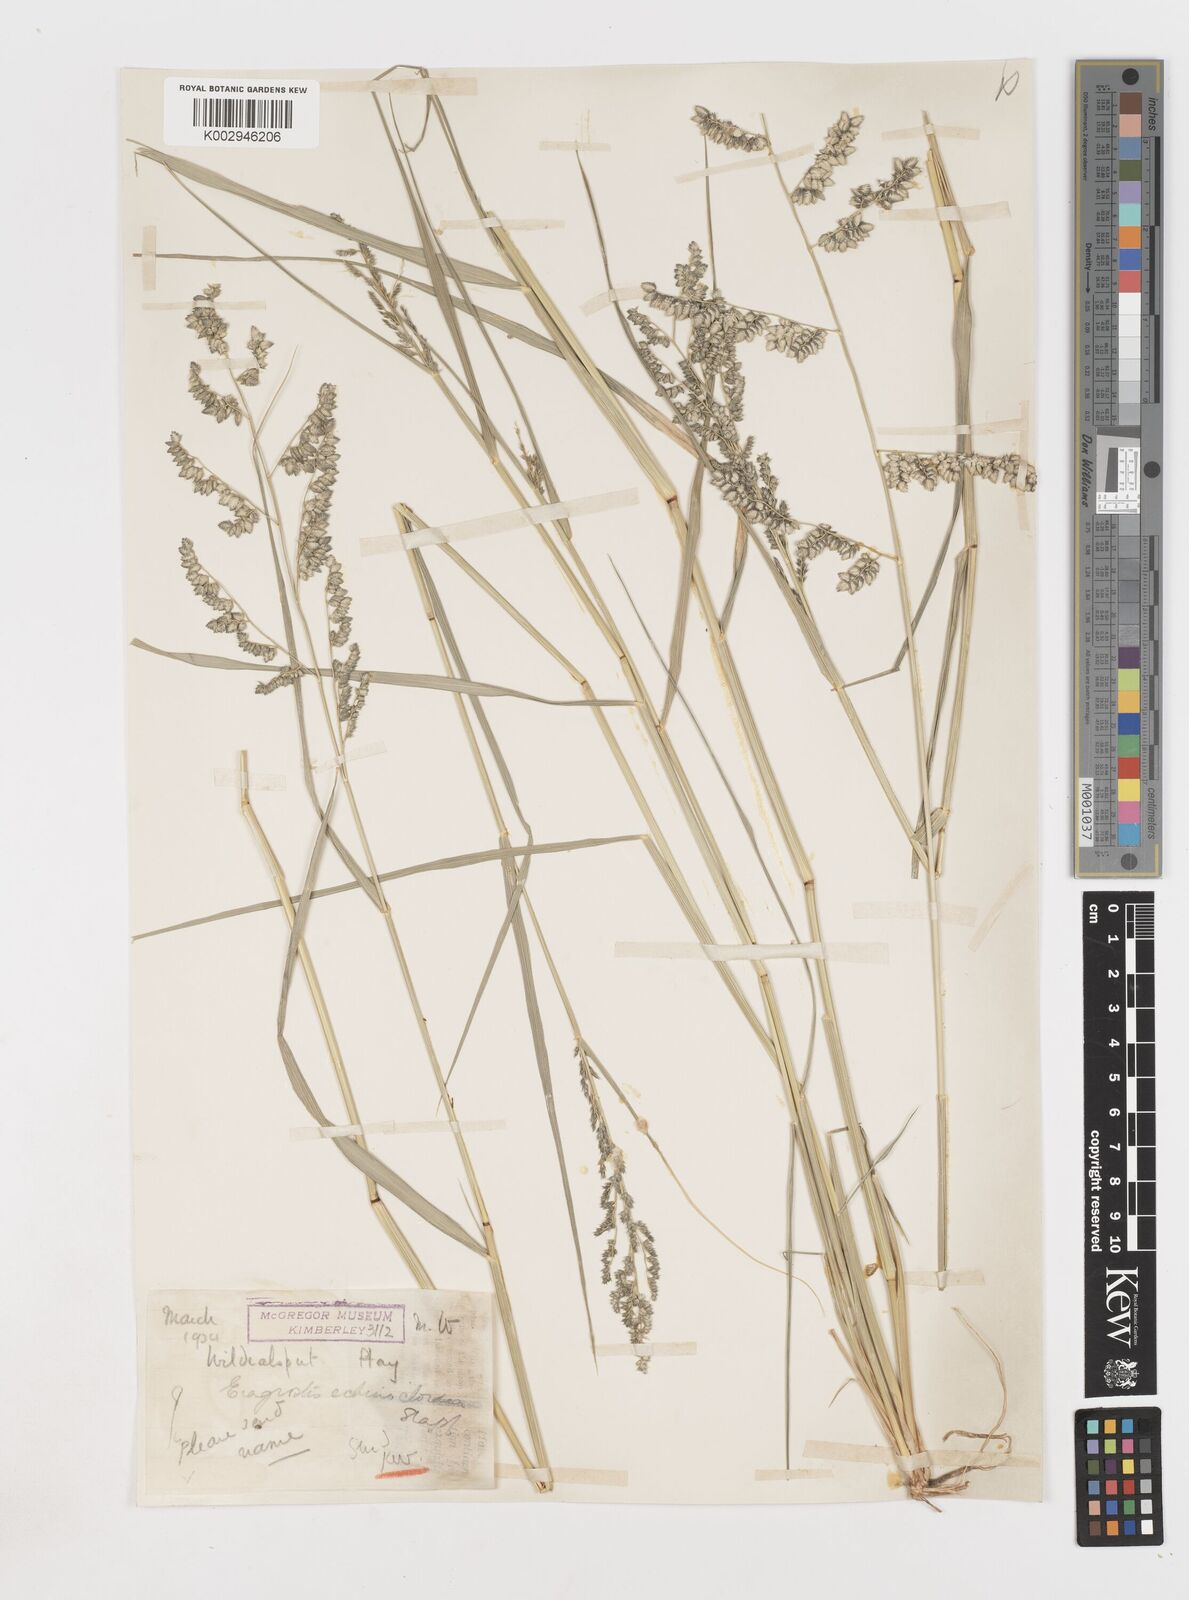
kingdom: Plantae
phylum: Tracheophyta
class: Liliopsida
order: Poales
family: Poaceae
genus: Eragrostis
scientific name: Eragrostis echinochloidea
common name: African lovegrass
